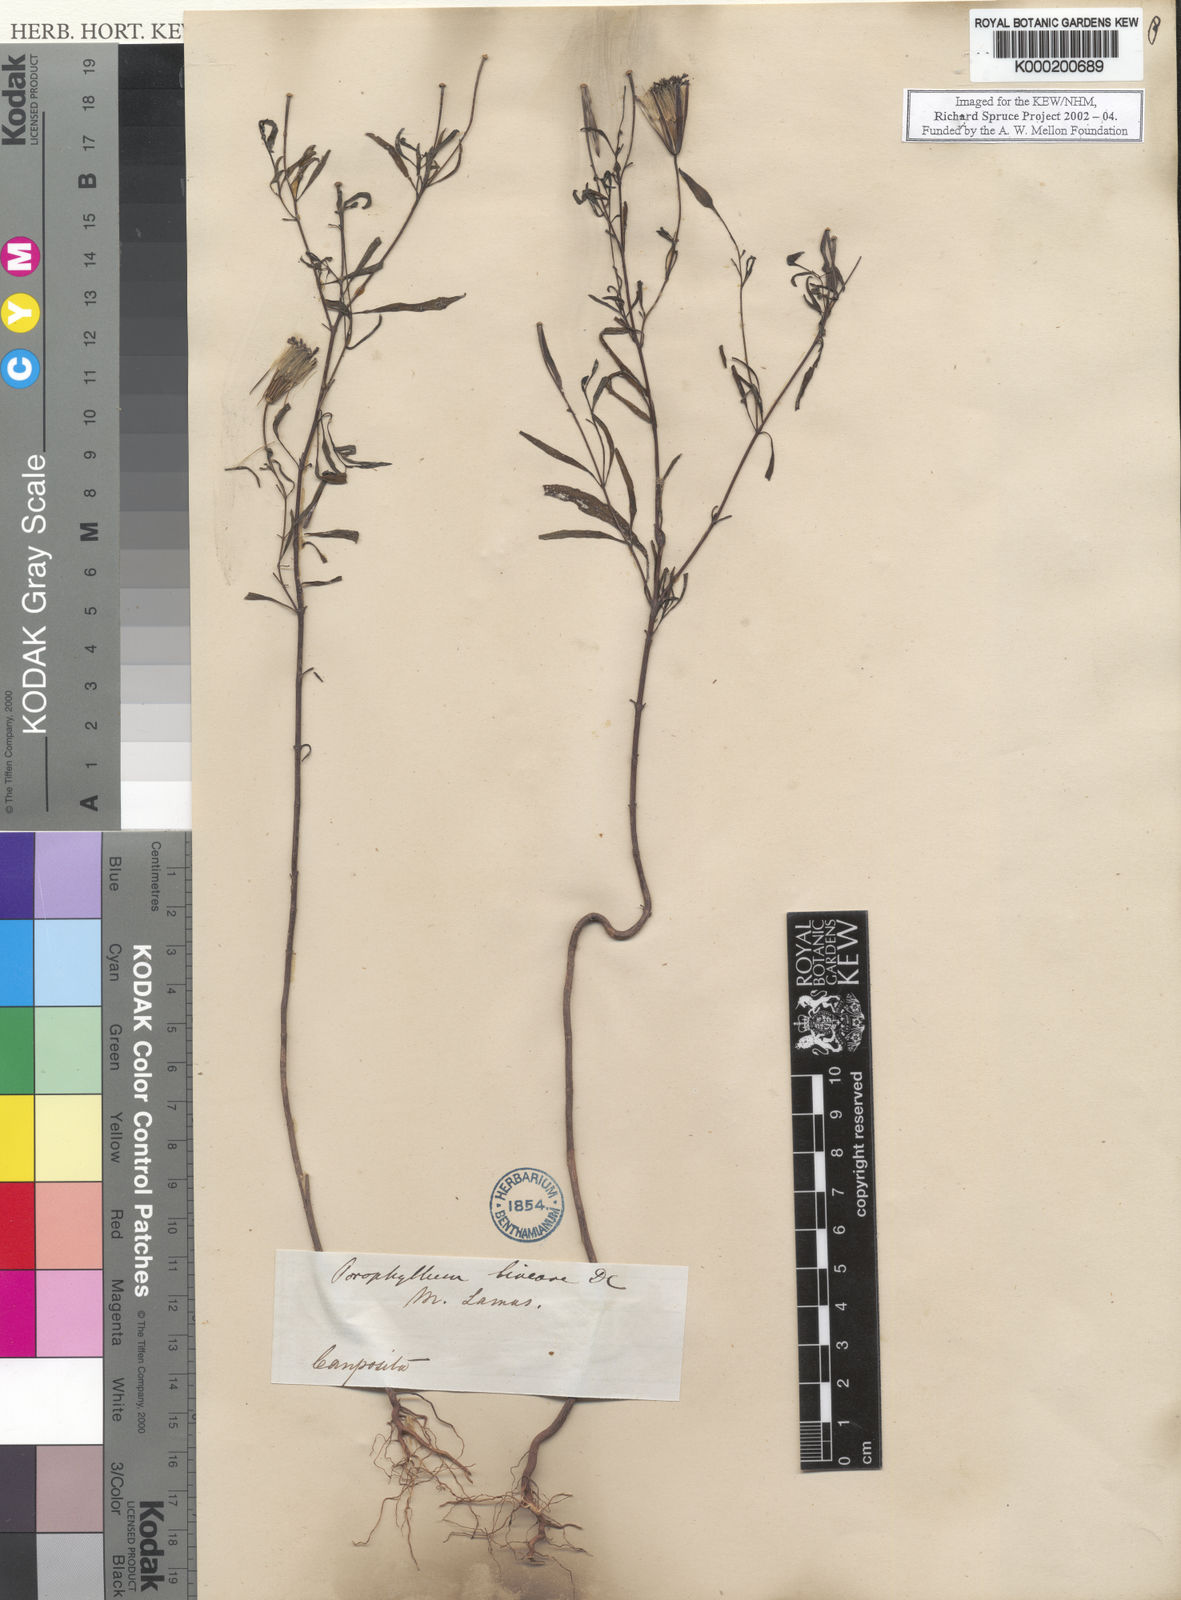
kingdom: Plantae
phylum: Tracheophyta
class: Magnoliopsida
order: Asterales
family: Asteraceae
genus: Porophyllum
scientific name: Porophyllum
